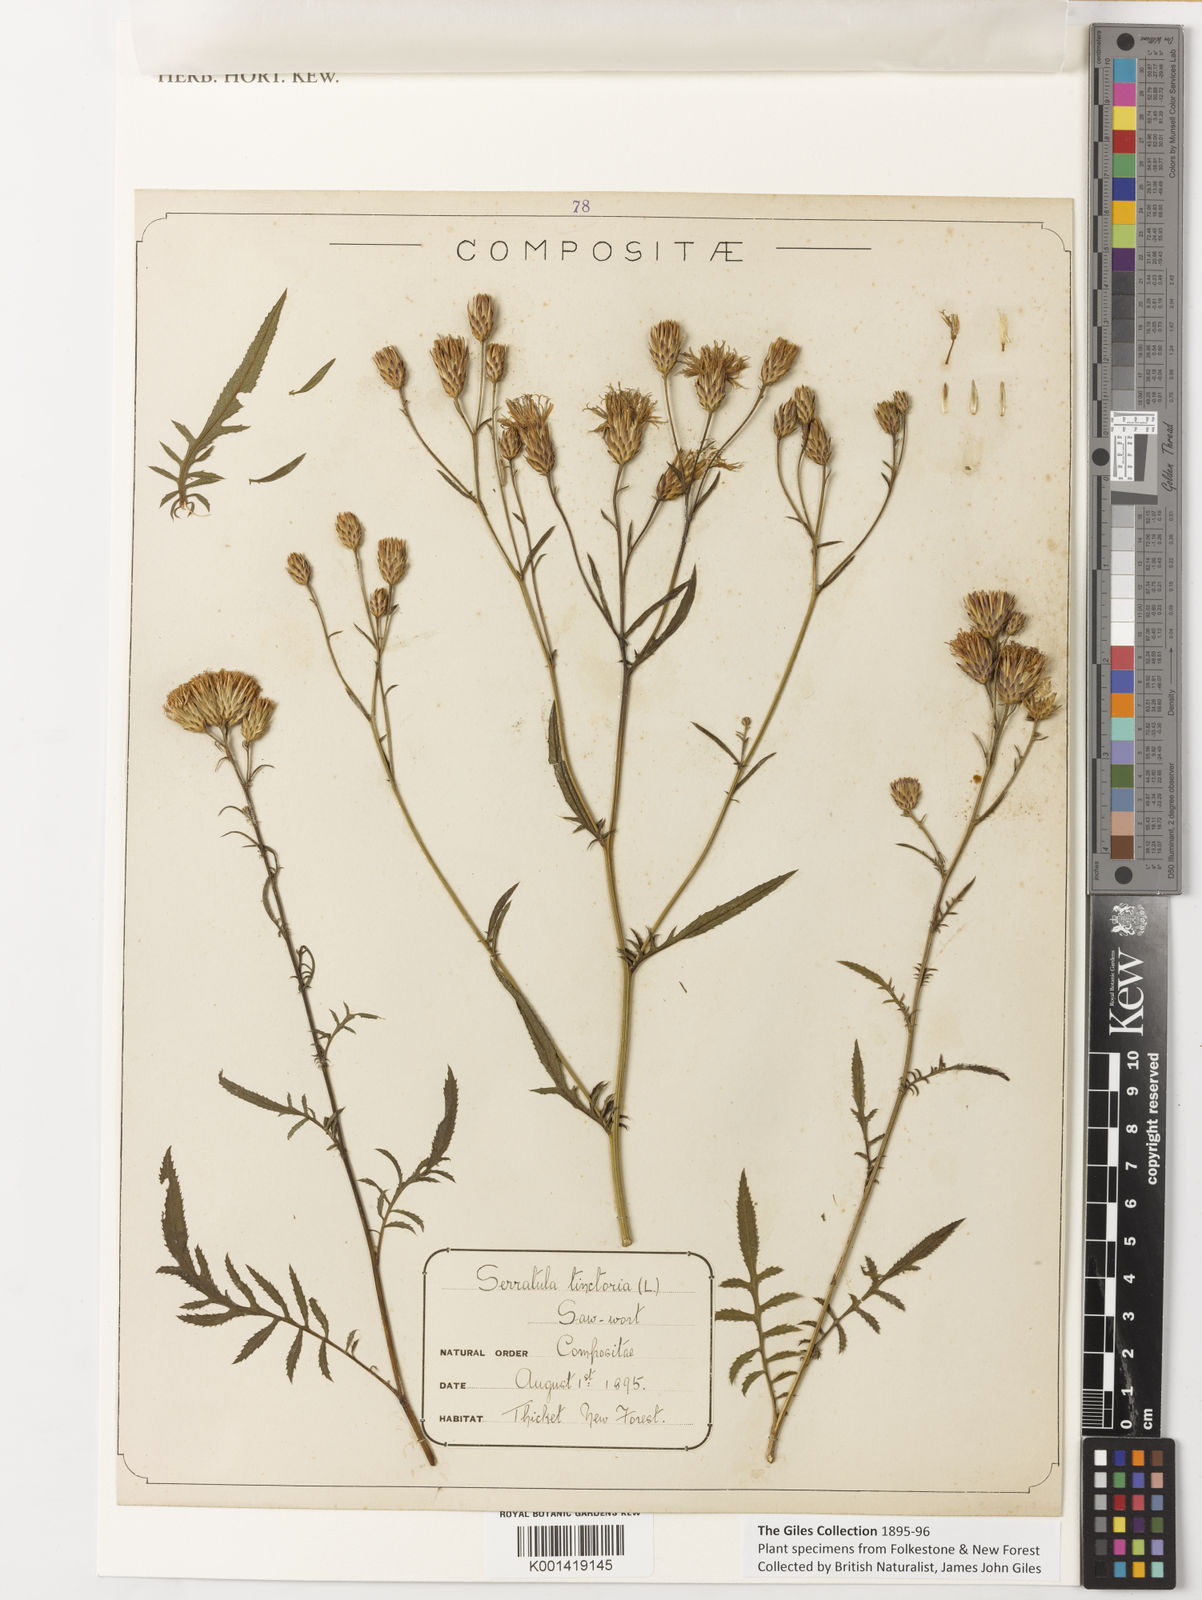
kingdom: Plantae
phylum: Tracheophyta
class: Magnoliopsida
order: Asterales
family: Asteraceae
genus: Serratula
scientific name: Serratula tinctoria
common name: Saw-wort
